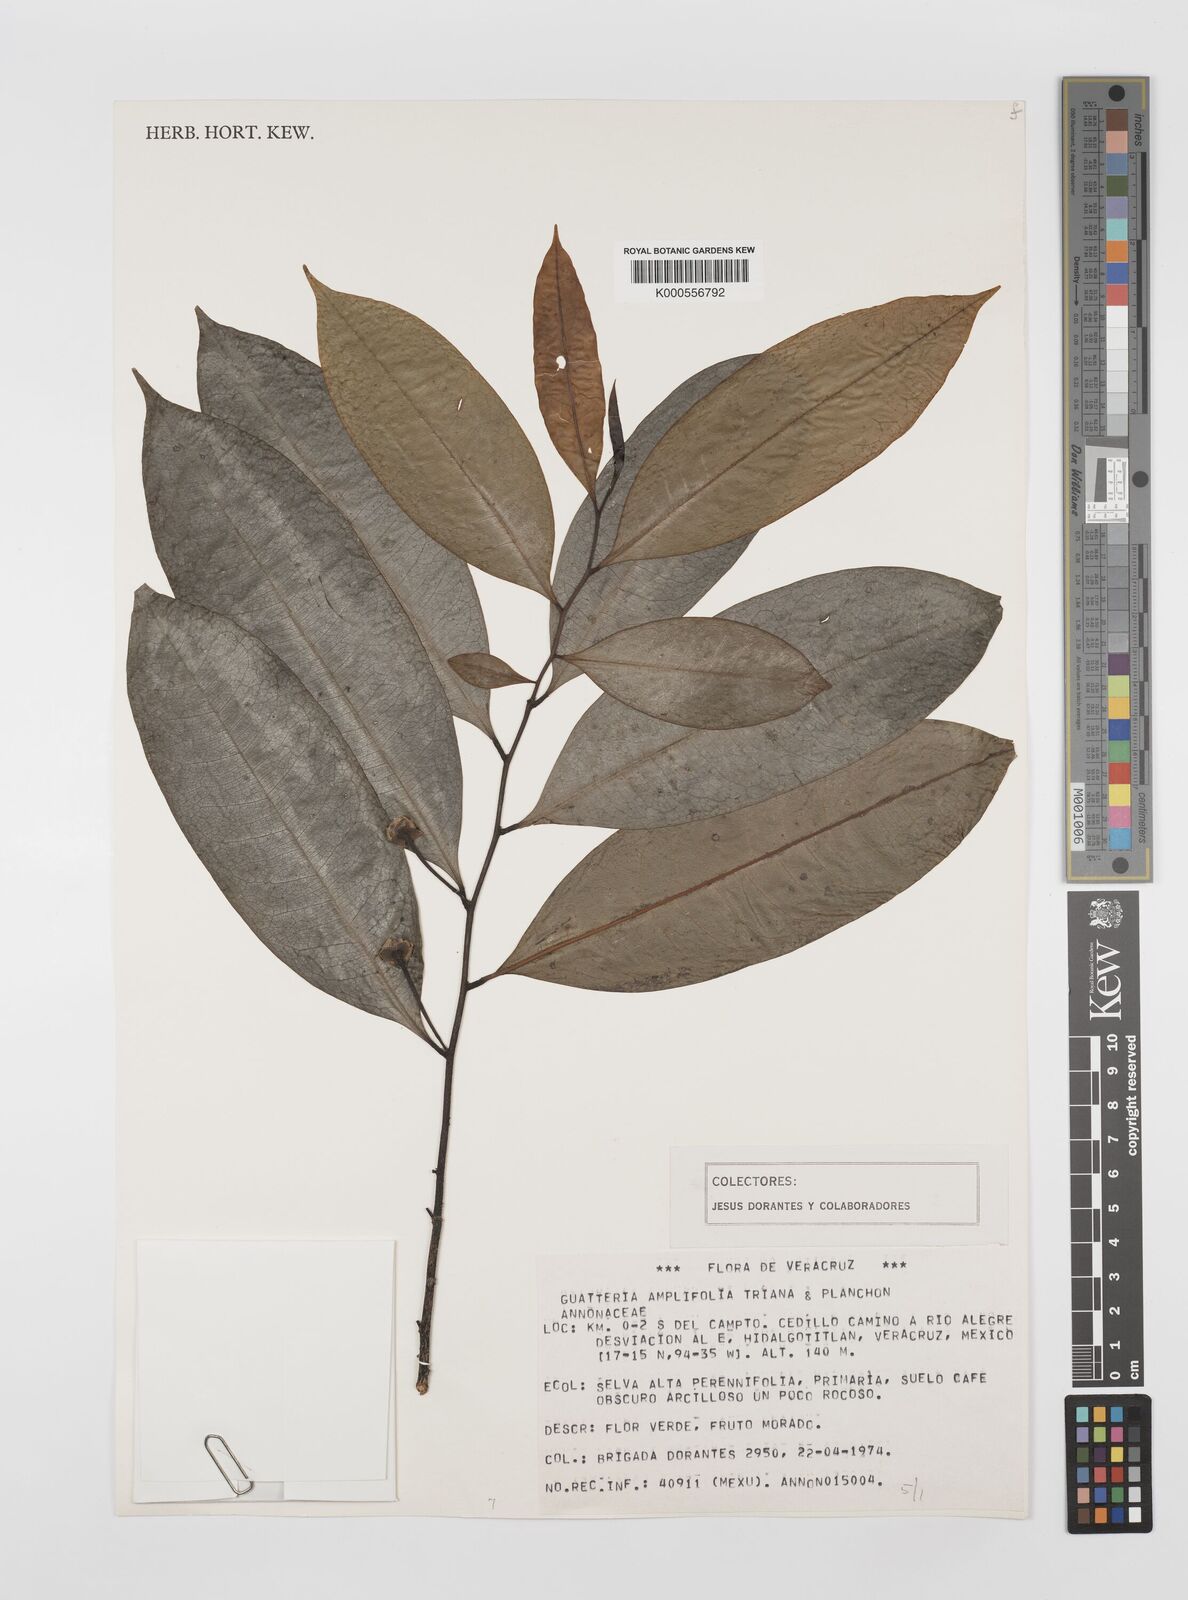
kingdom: Plantae
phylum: Tracheophyta
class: Magnoliopsida
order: Magnoliales
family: Annonaceae
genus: Guatteria
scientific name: Guatteria amplifolia
